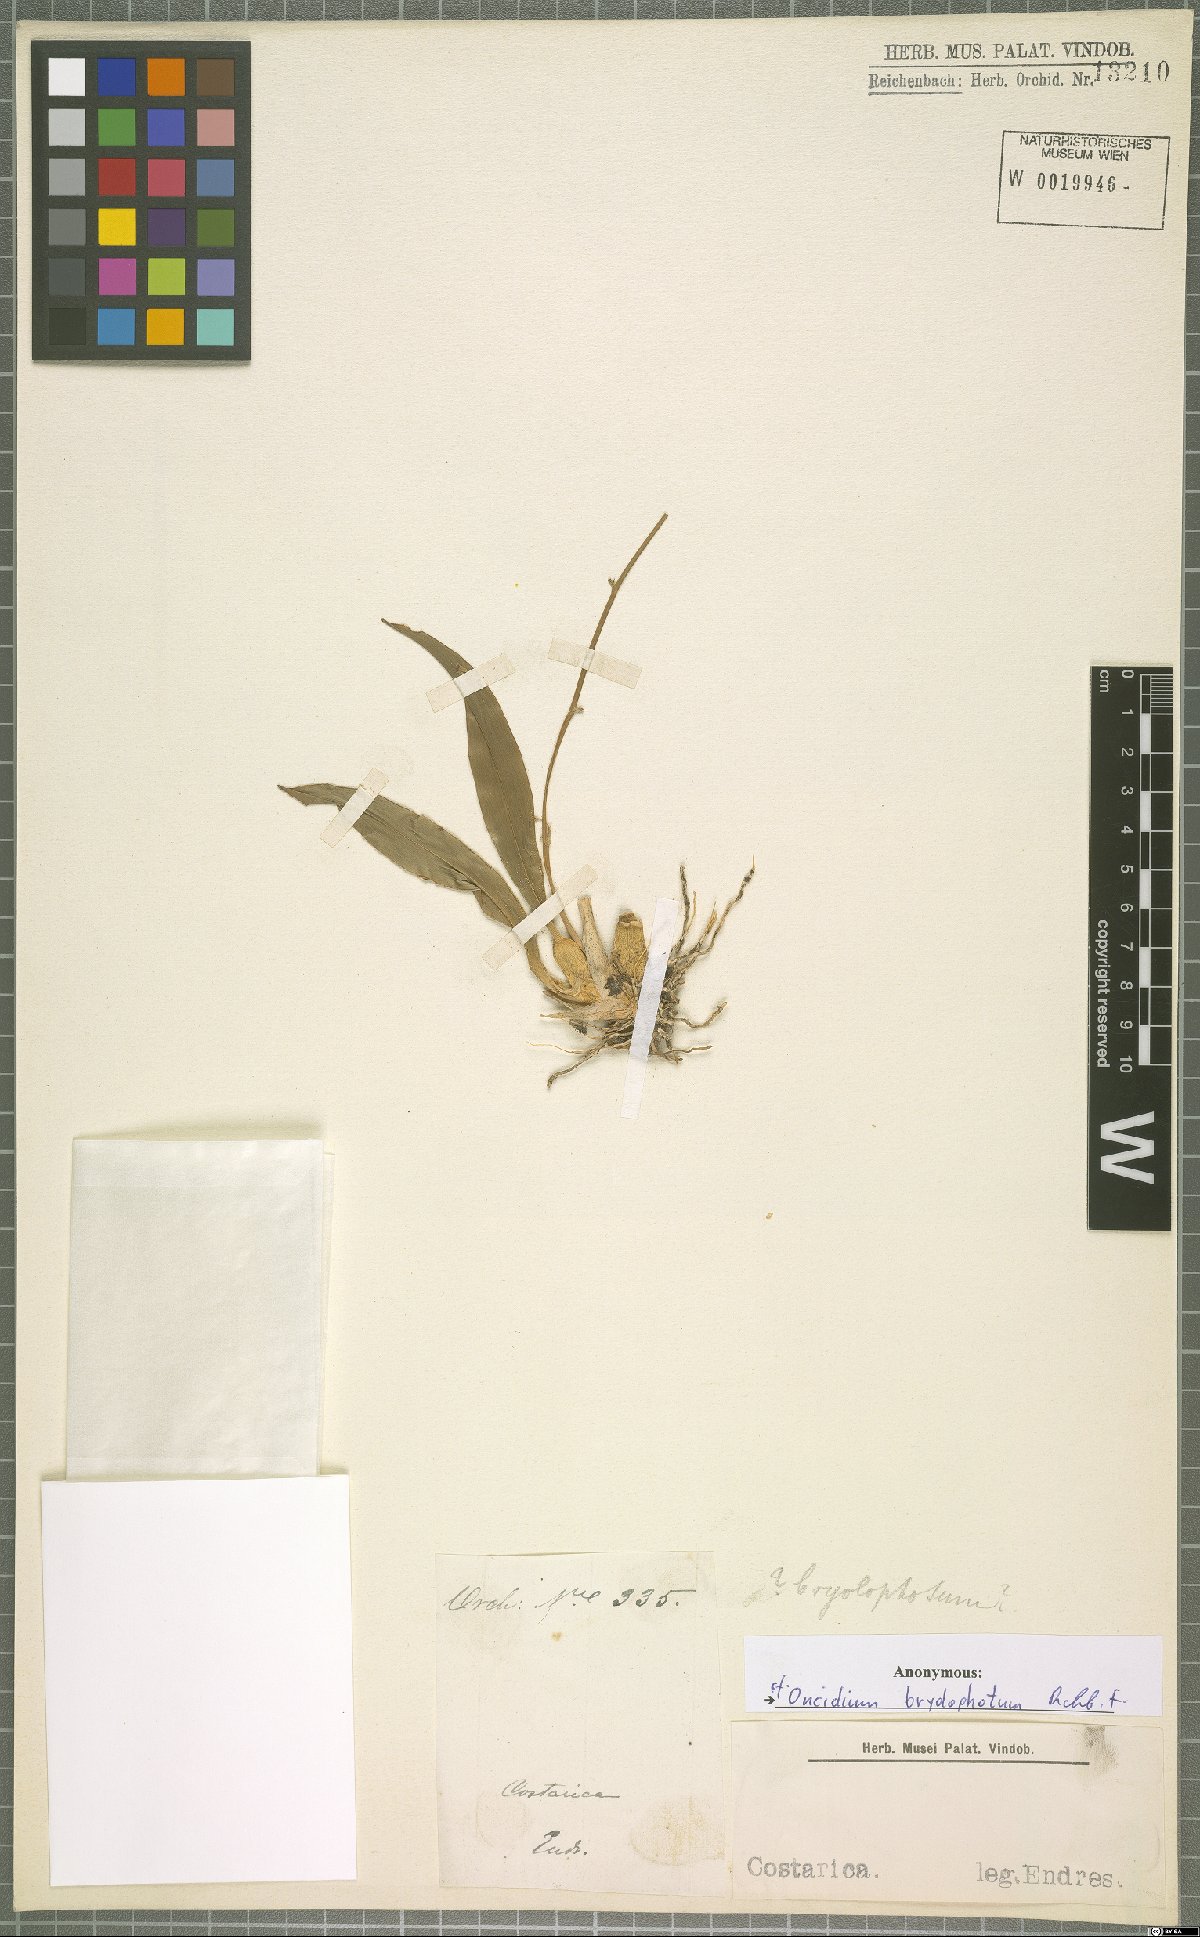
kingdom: Plantae
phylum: Tracheophyta
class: Liliopsida
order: Asparagales
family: Orchidaceae
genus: Oncidium
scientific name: Oncidium bryolophotum
